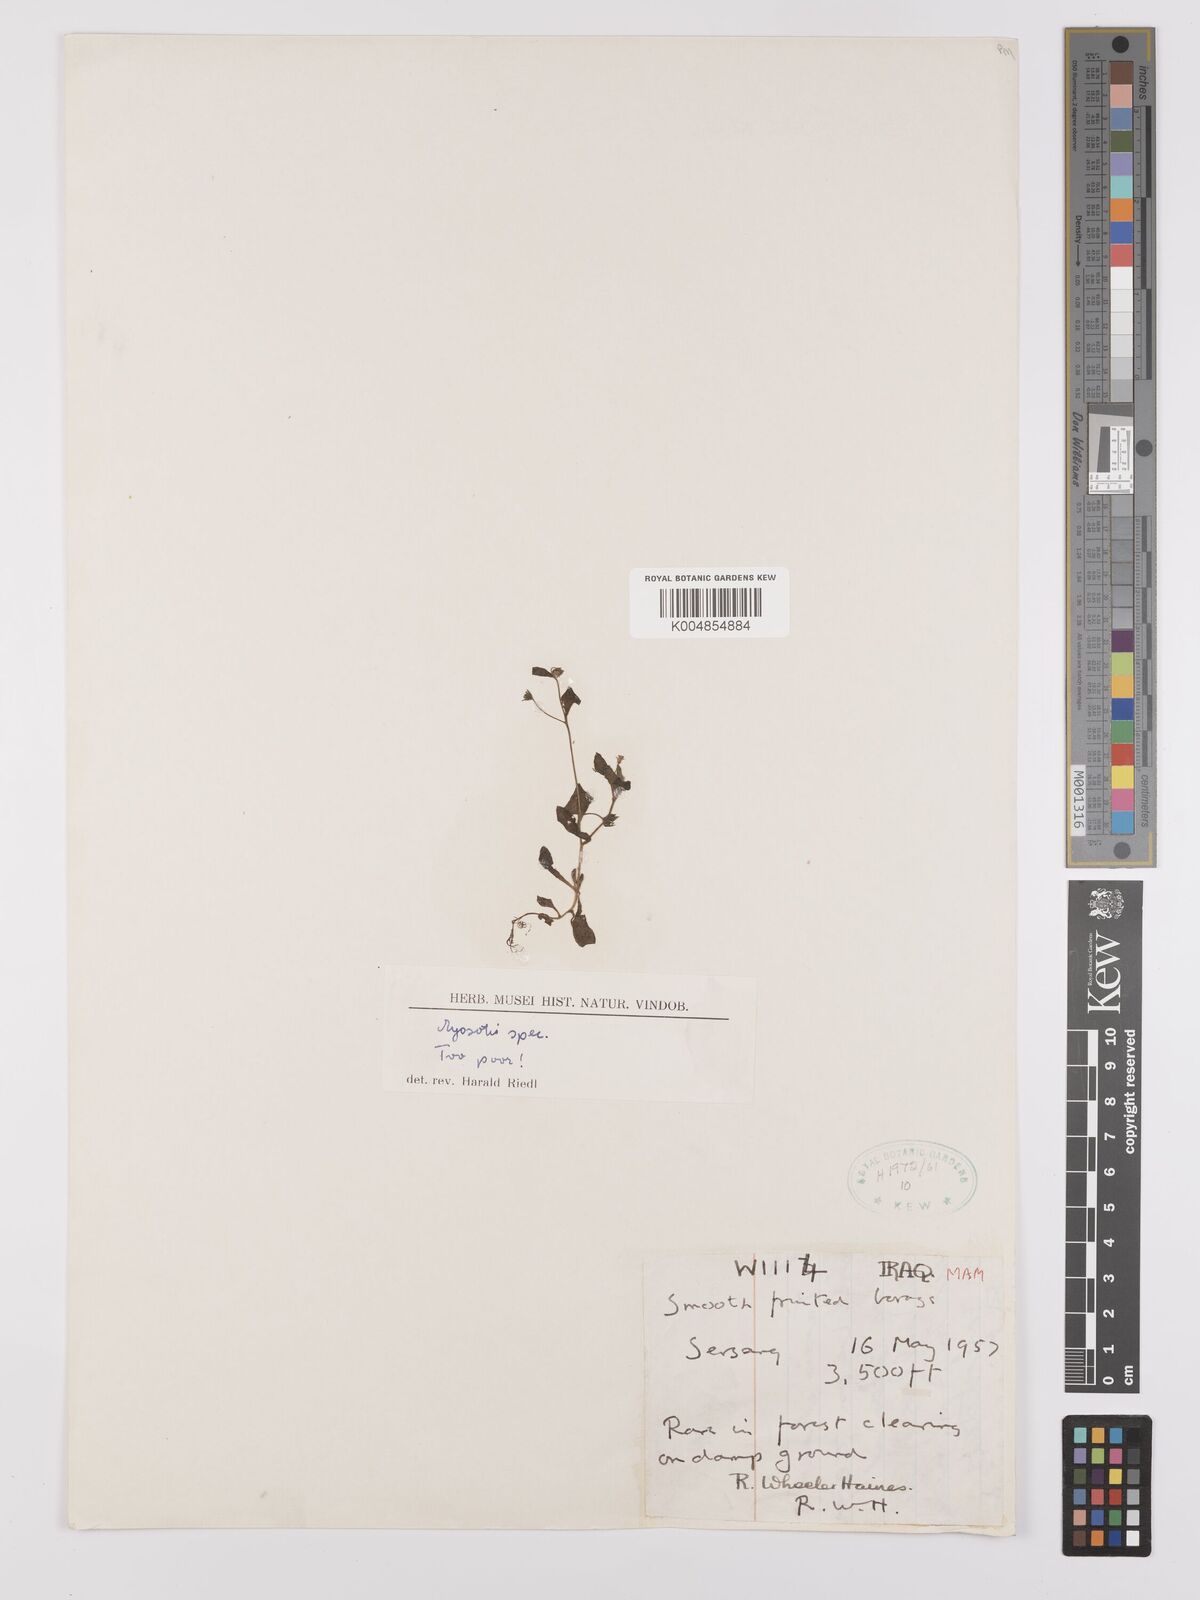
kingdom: Plantae
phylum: Tracheophyta
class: Magnoliopsida
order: Boraginales
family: Boraginaceae
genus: Myosotis
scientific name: Myosotis
